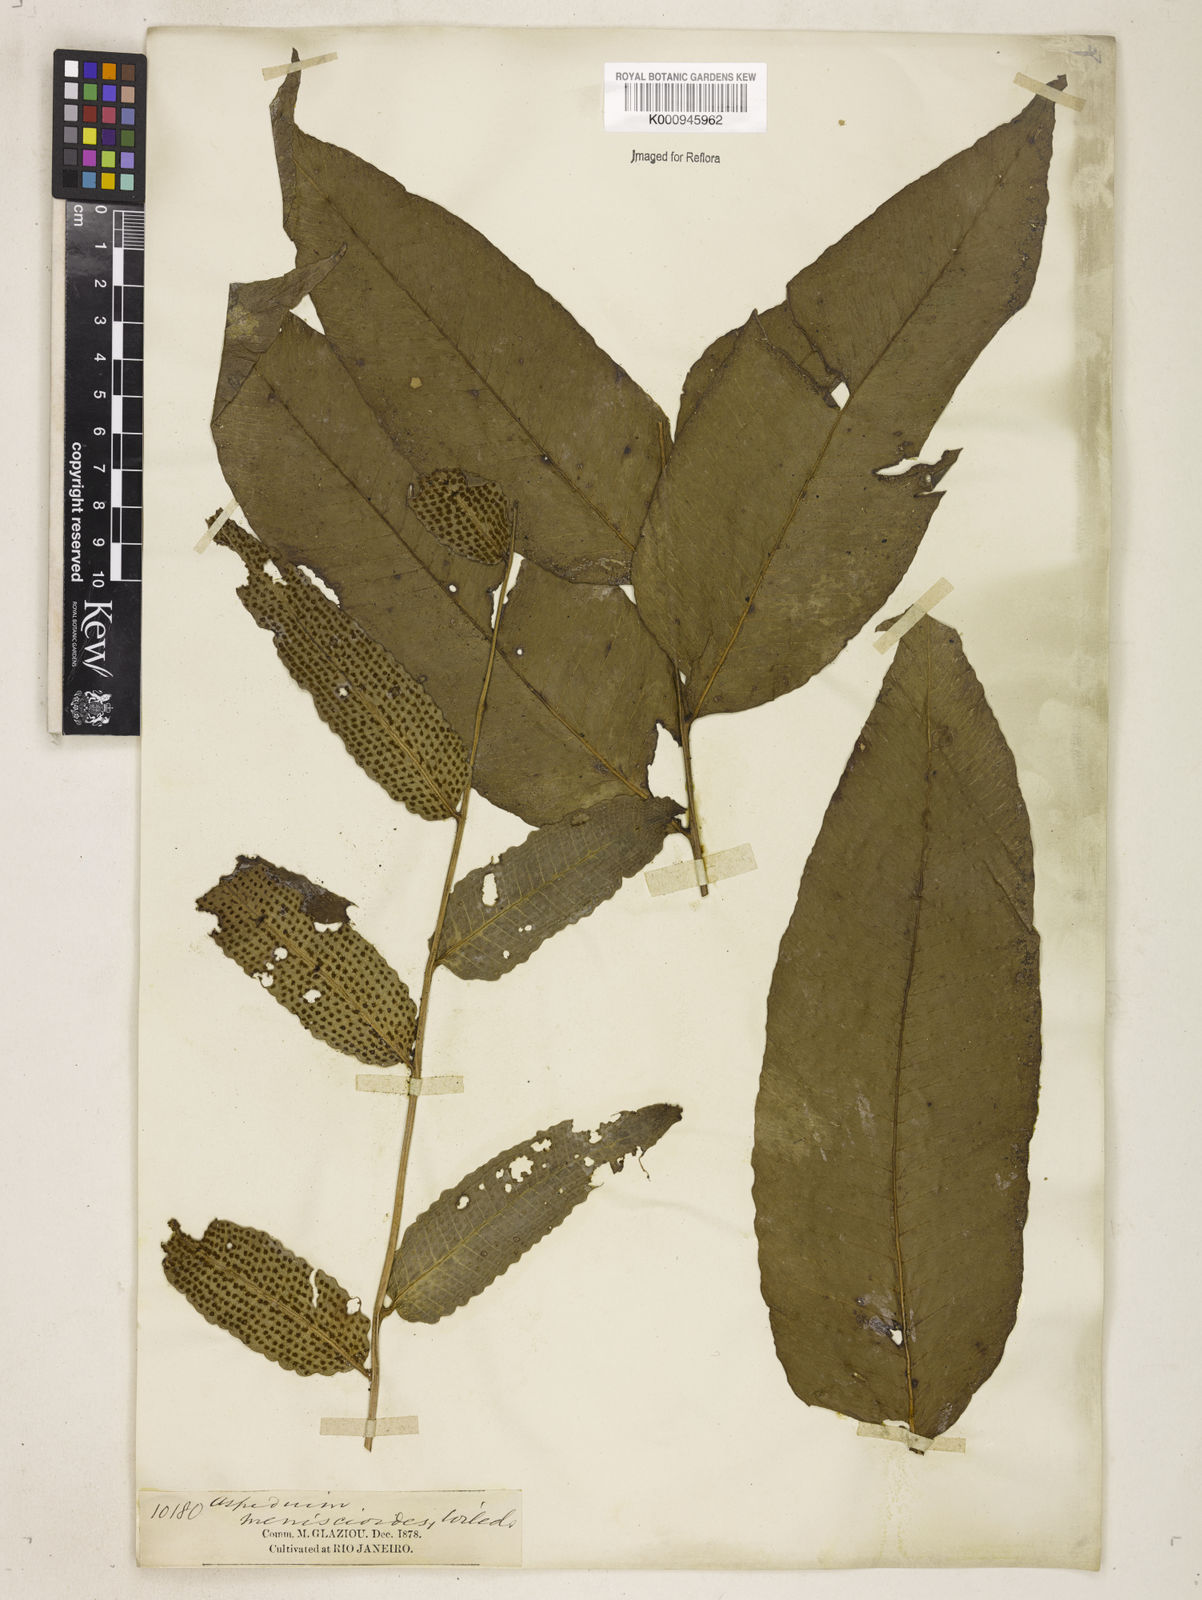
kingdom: Plantae
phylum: Tracheophyta
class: Polypodiopsida
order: Polypodiales
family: Dryopteridaceae
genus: Cyclodium
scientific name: Cyclodium meniscioides
